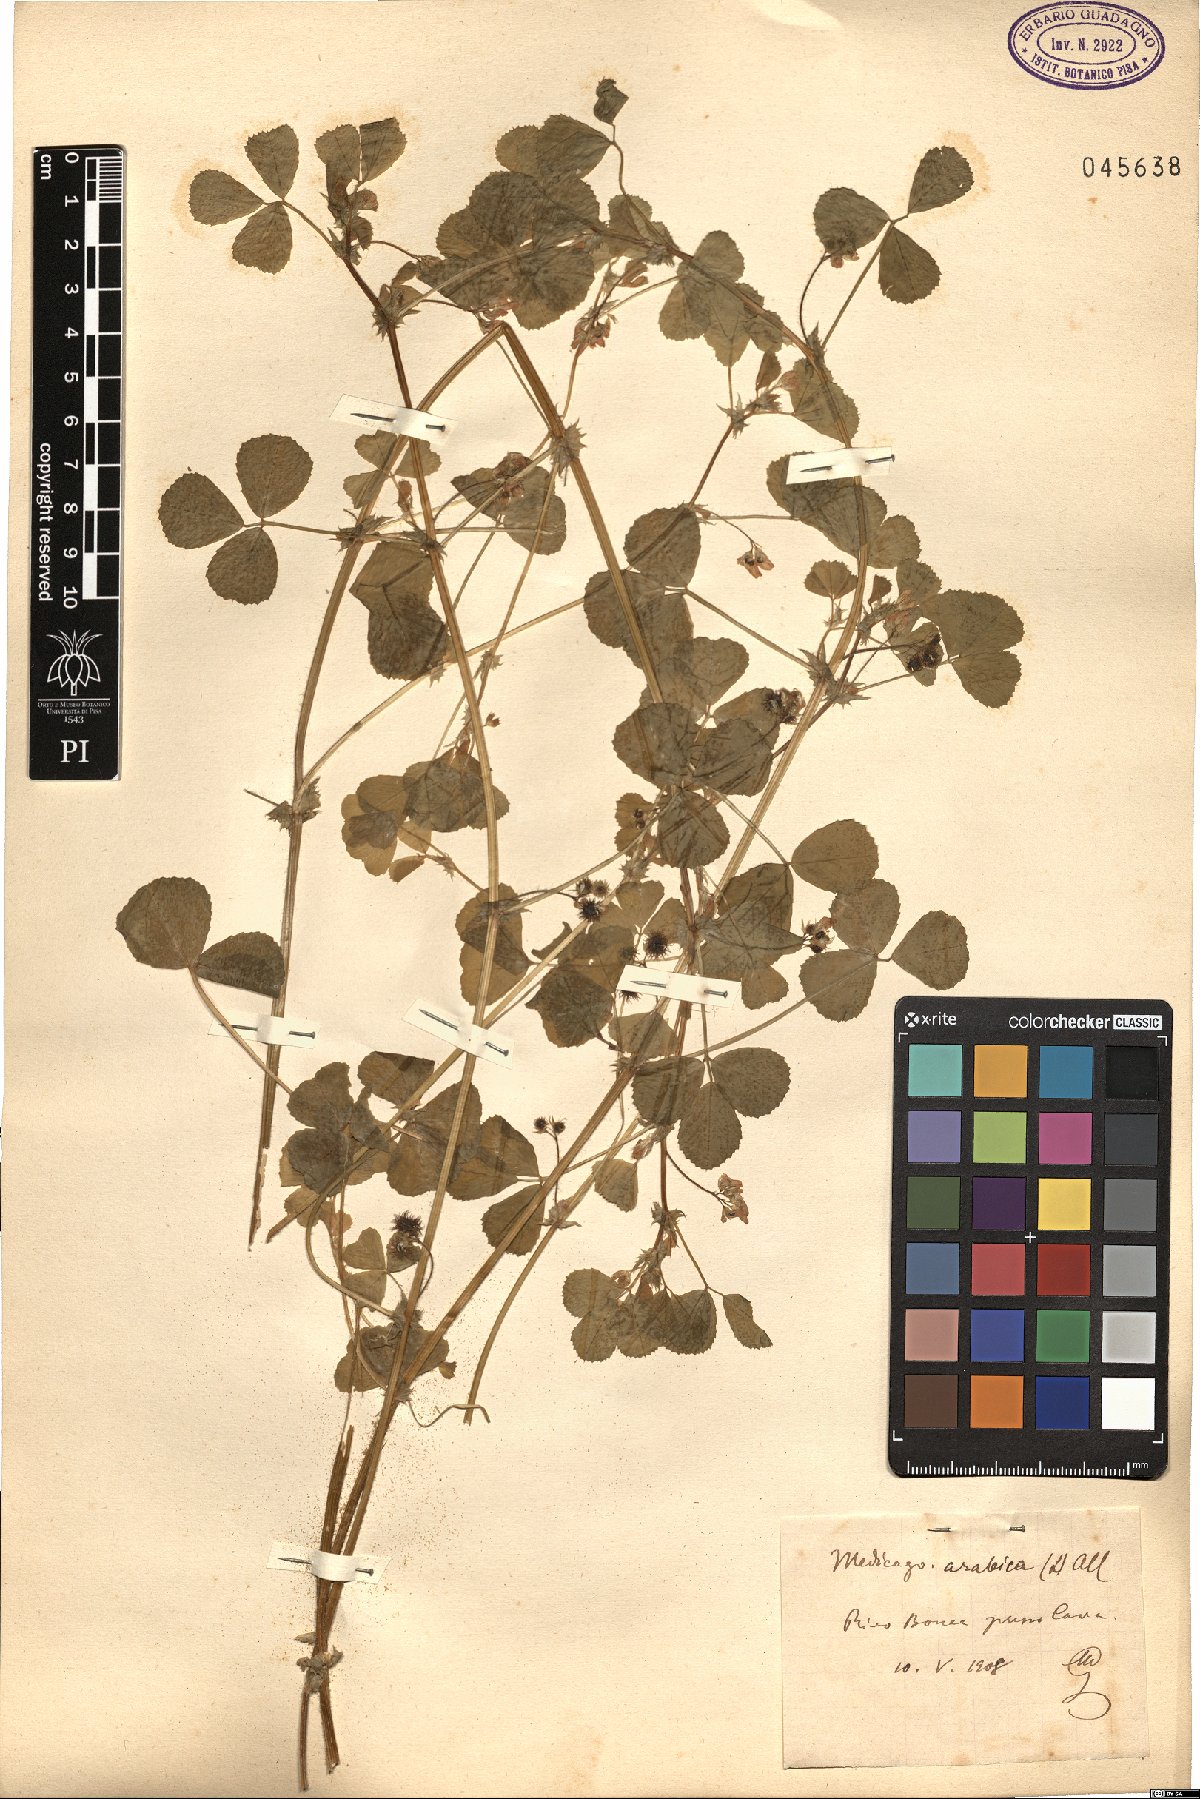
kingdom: Plantae
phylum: Tracheophyta
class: Magnoliopsida
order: Fabales
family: Fabaceae
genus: Medicago
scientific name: Medicago arabica
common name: Spotted medick
